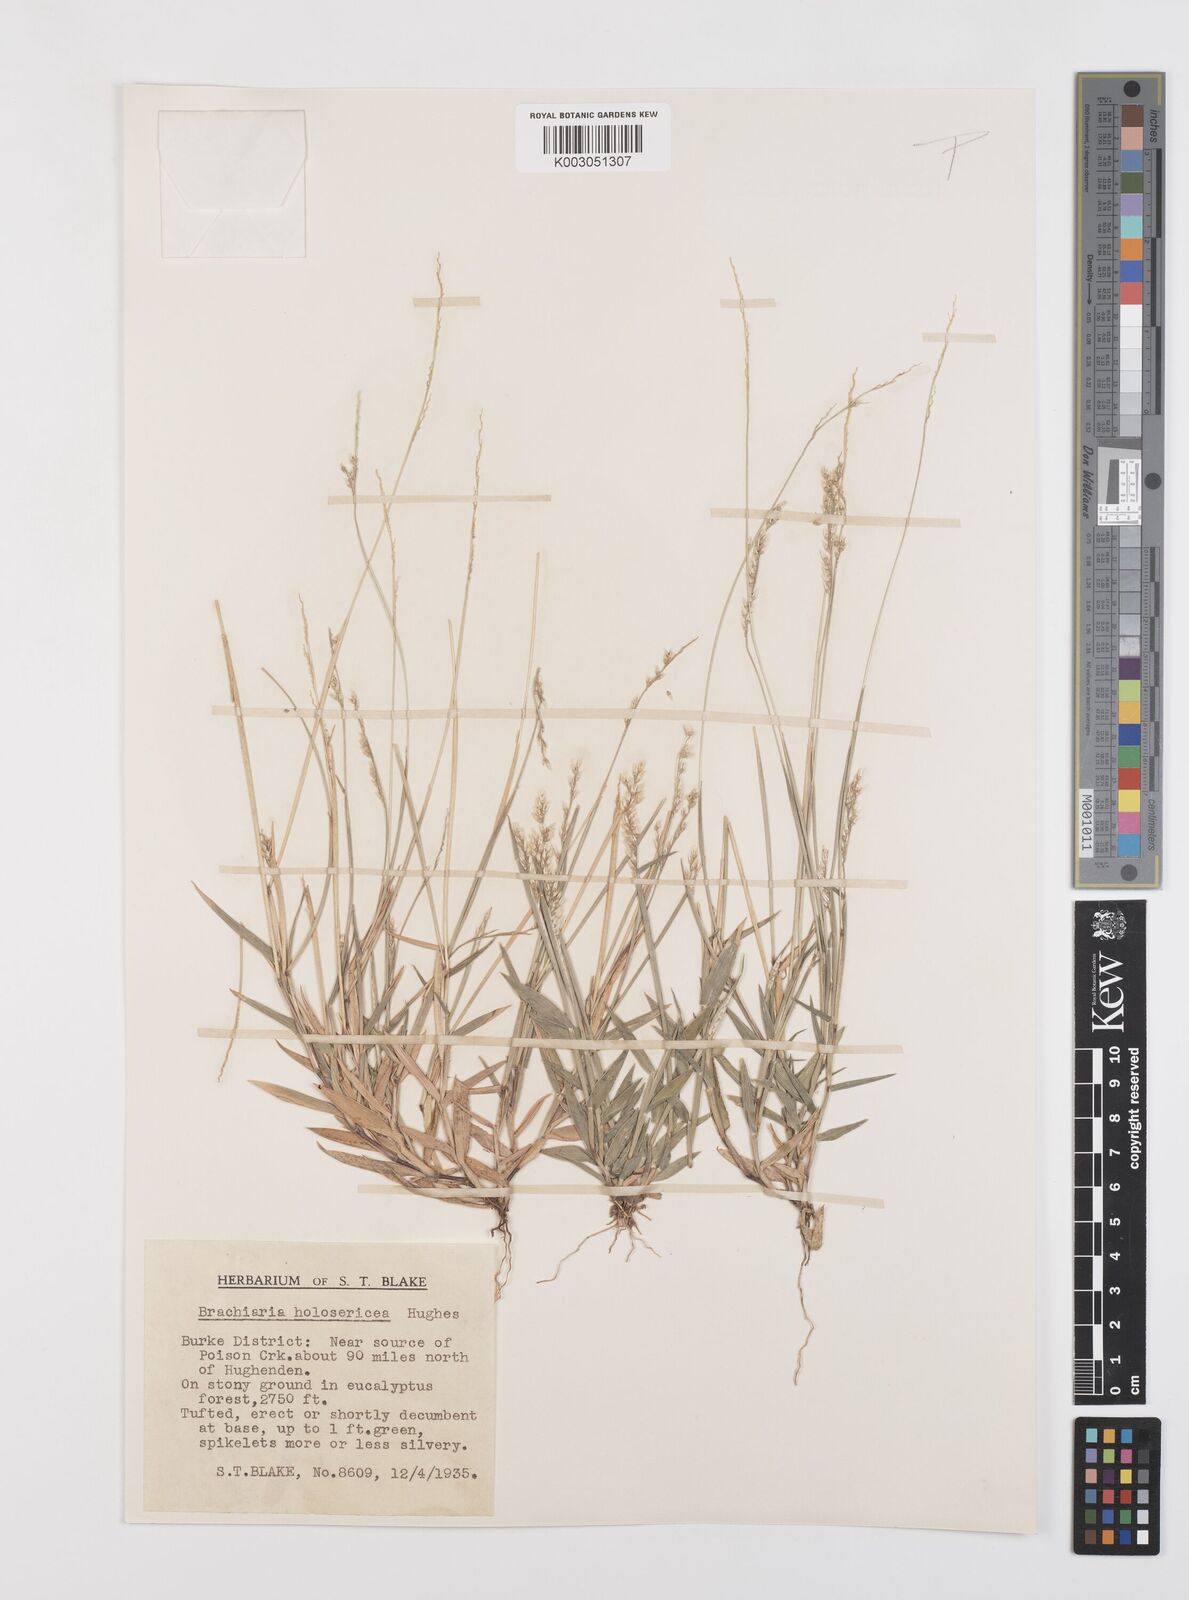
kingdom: Plantae
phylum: Tracheophyta
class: Liliopsida
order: Poales
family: Poaceae
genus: Urochloa
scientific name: Urochloa holosericea
